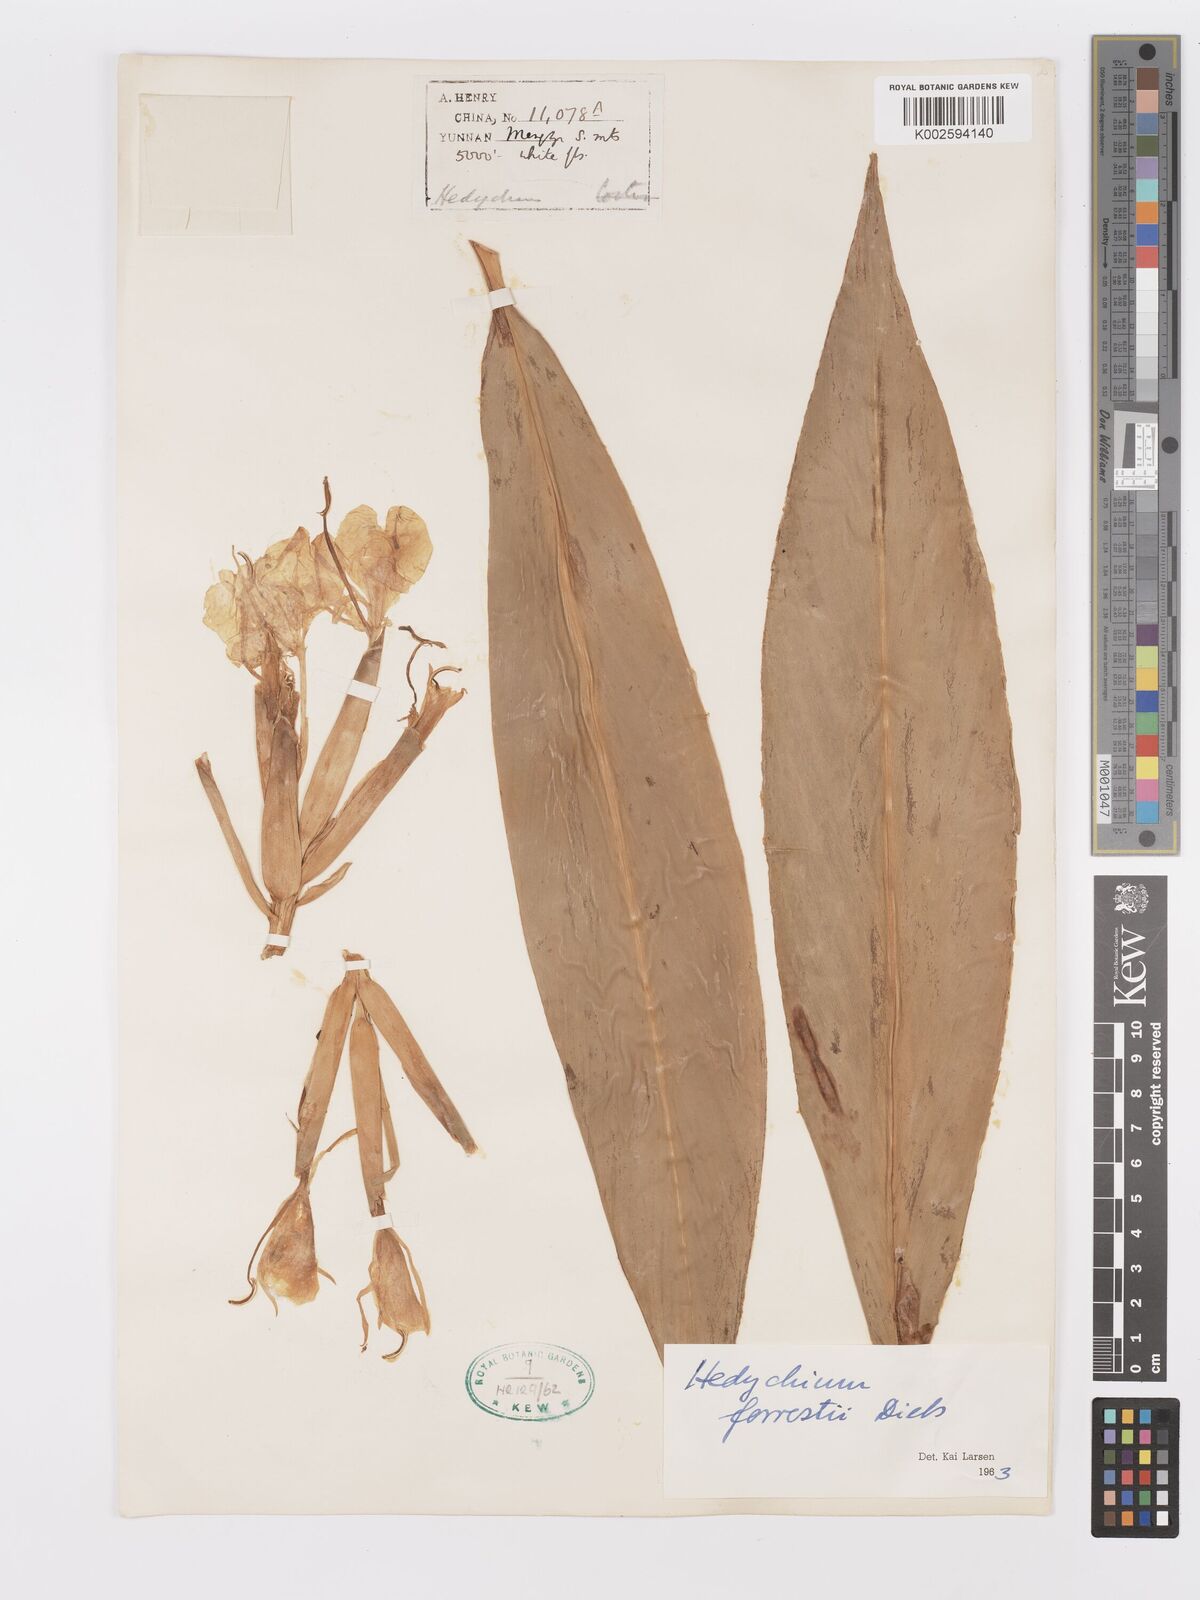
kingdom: Plantae
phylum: Tracheophyta
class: Liliopsida
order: Zingiberales
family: Zingiberaceae
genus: Hedychium
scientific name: Hedychium forrestii
